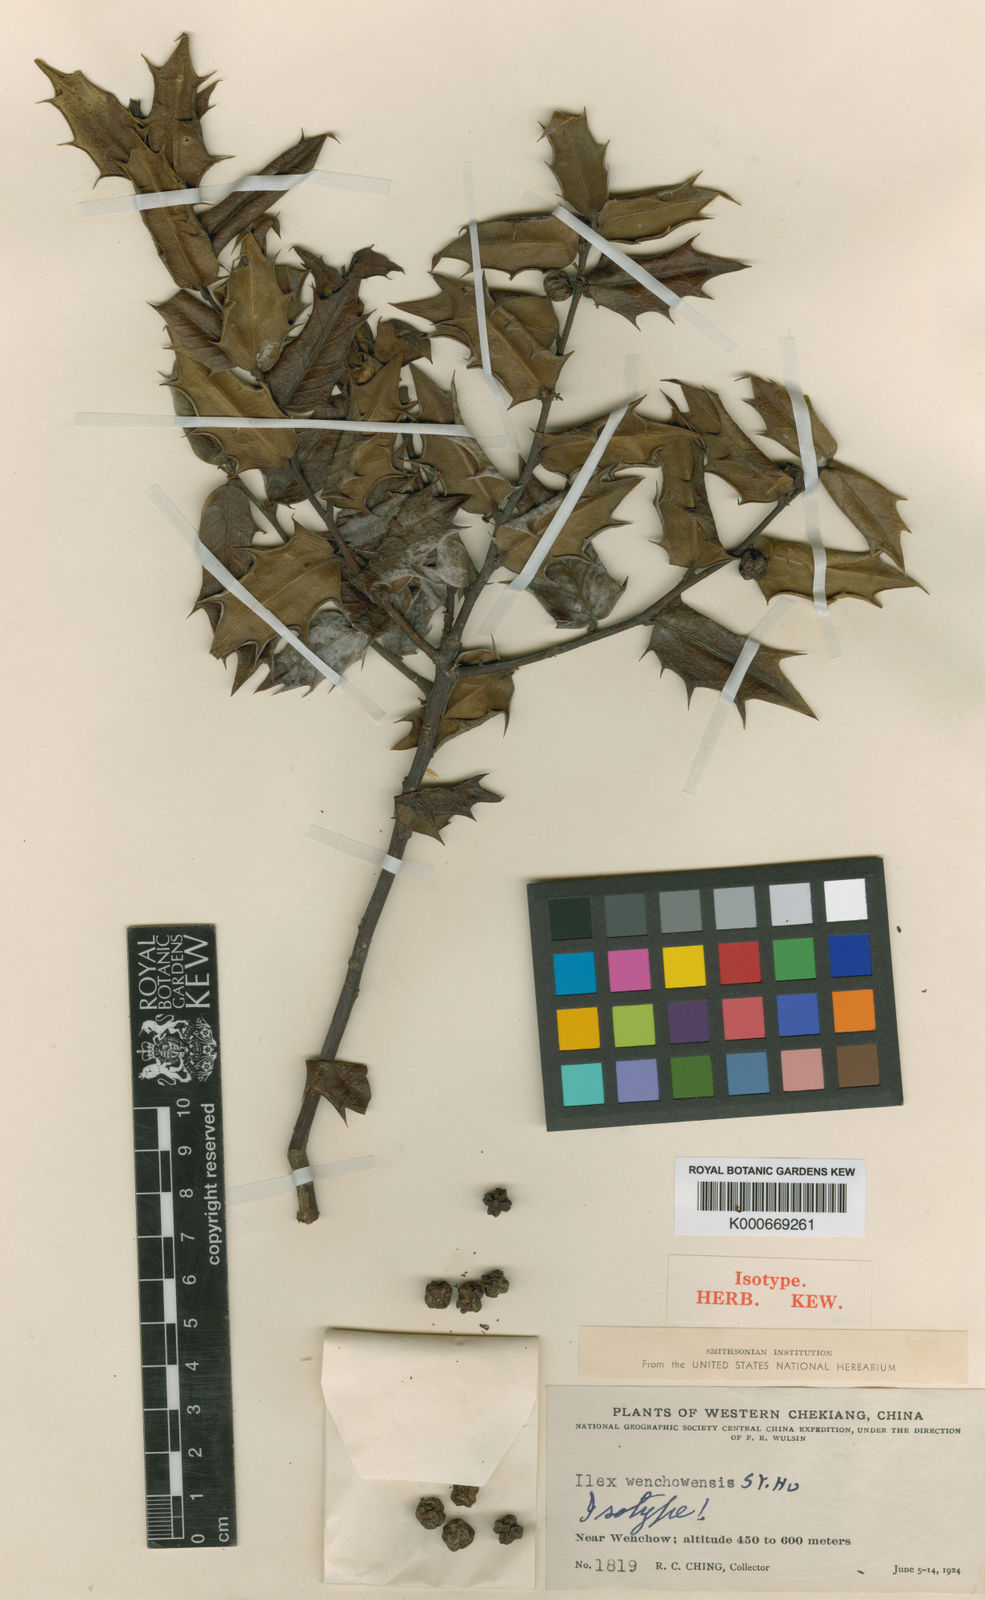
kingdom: Plantae
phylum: Tracheophyta
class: Magnoliopsida
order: Aquifoliales
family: Aquifoliaceae
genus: Ilex
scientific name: Ilex wenchowensis
